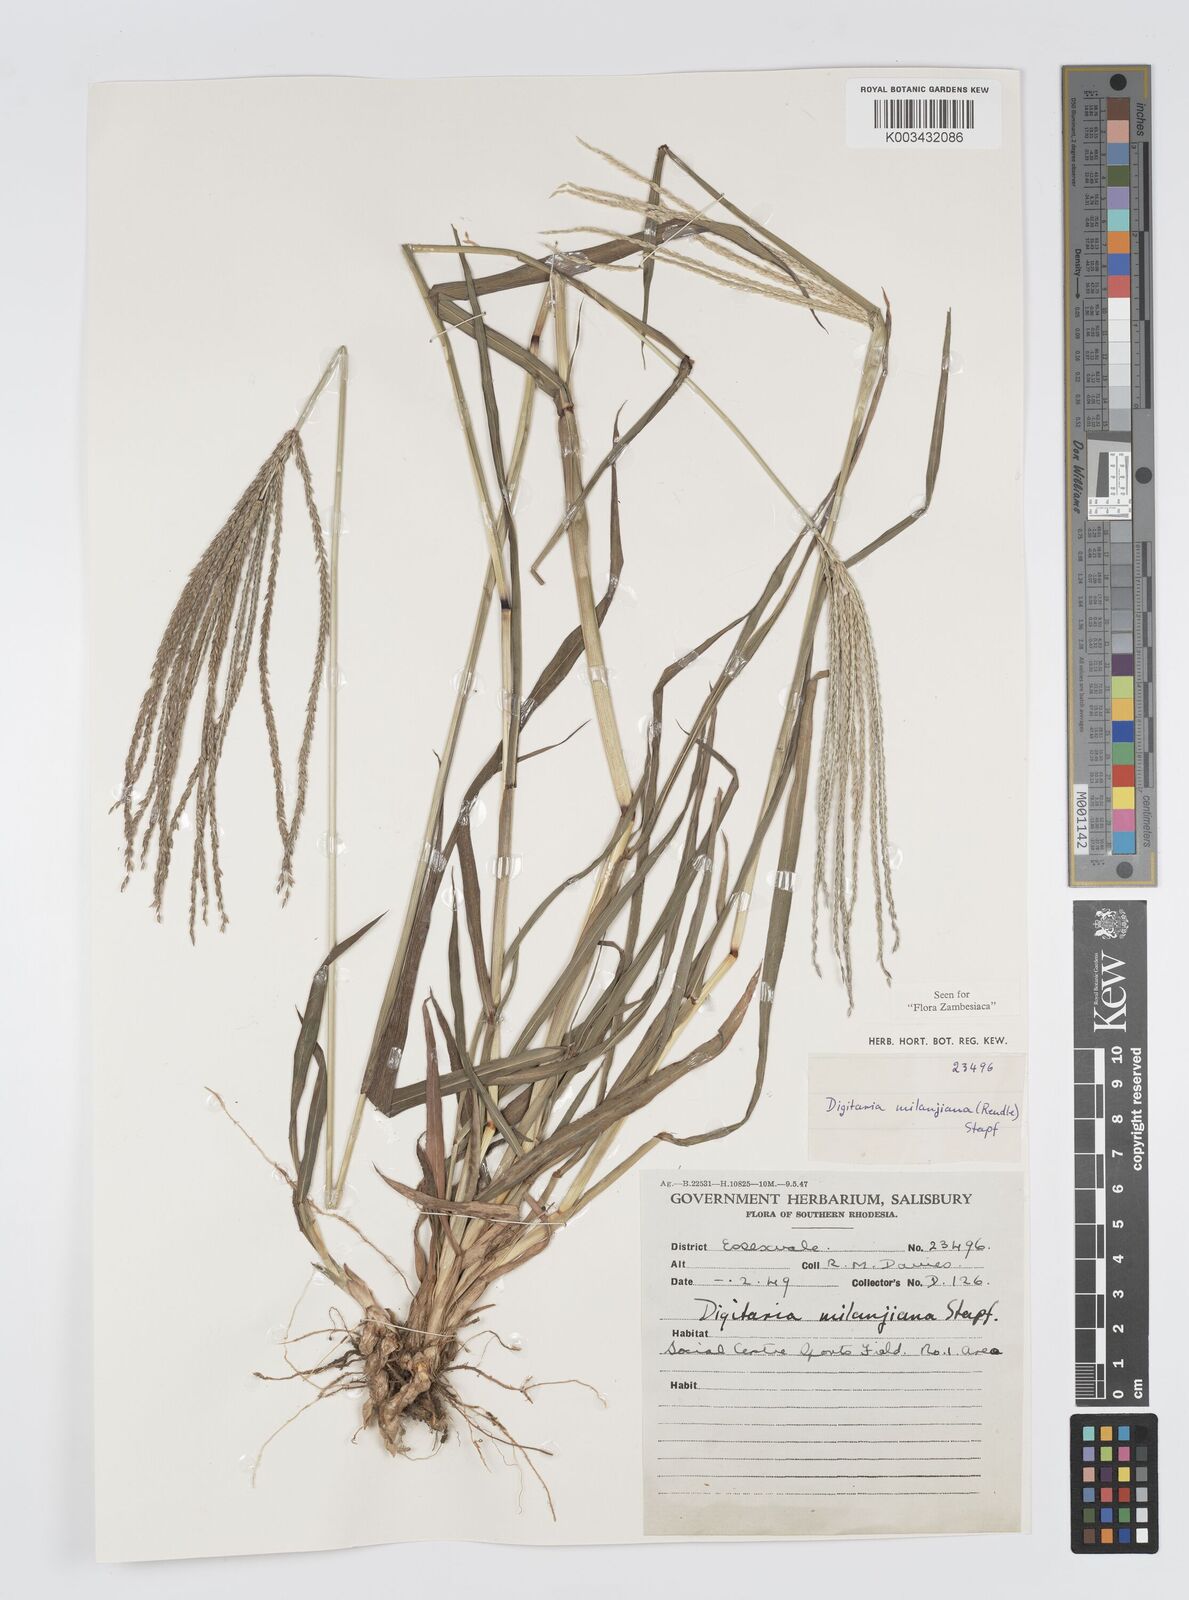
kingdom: Plantae
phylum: Tracheophyta
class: Liliopsida
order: Poales
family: Poaceae
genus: Digitaria
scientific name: Digitaria milanjiana
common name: Madagascar crabgrass
